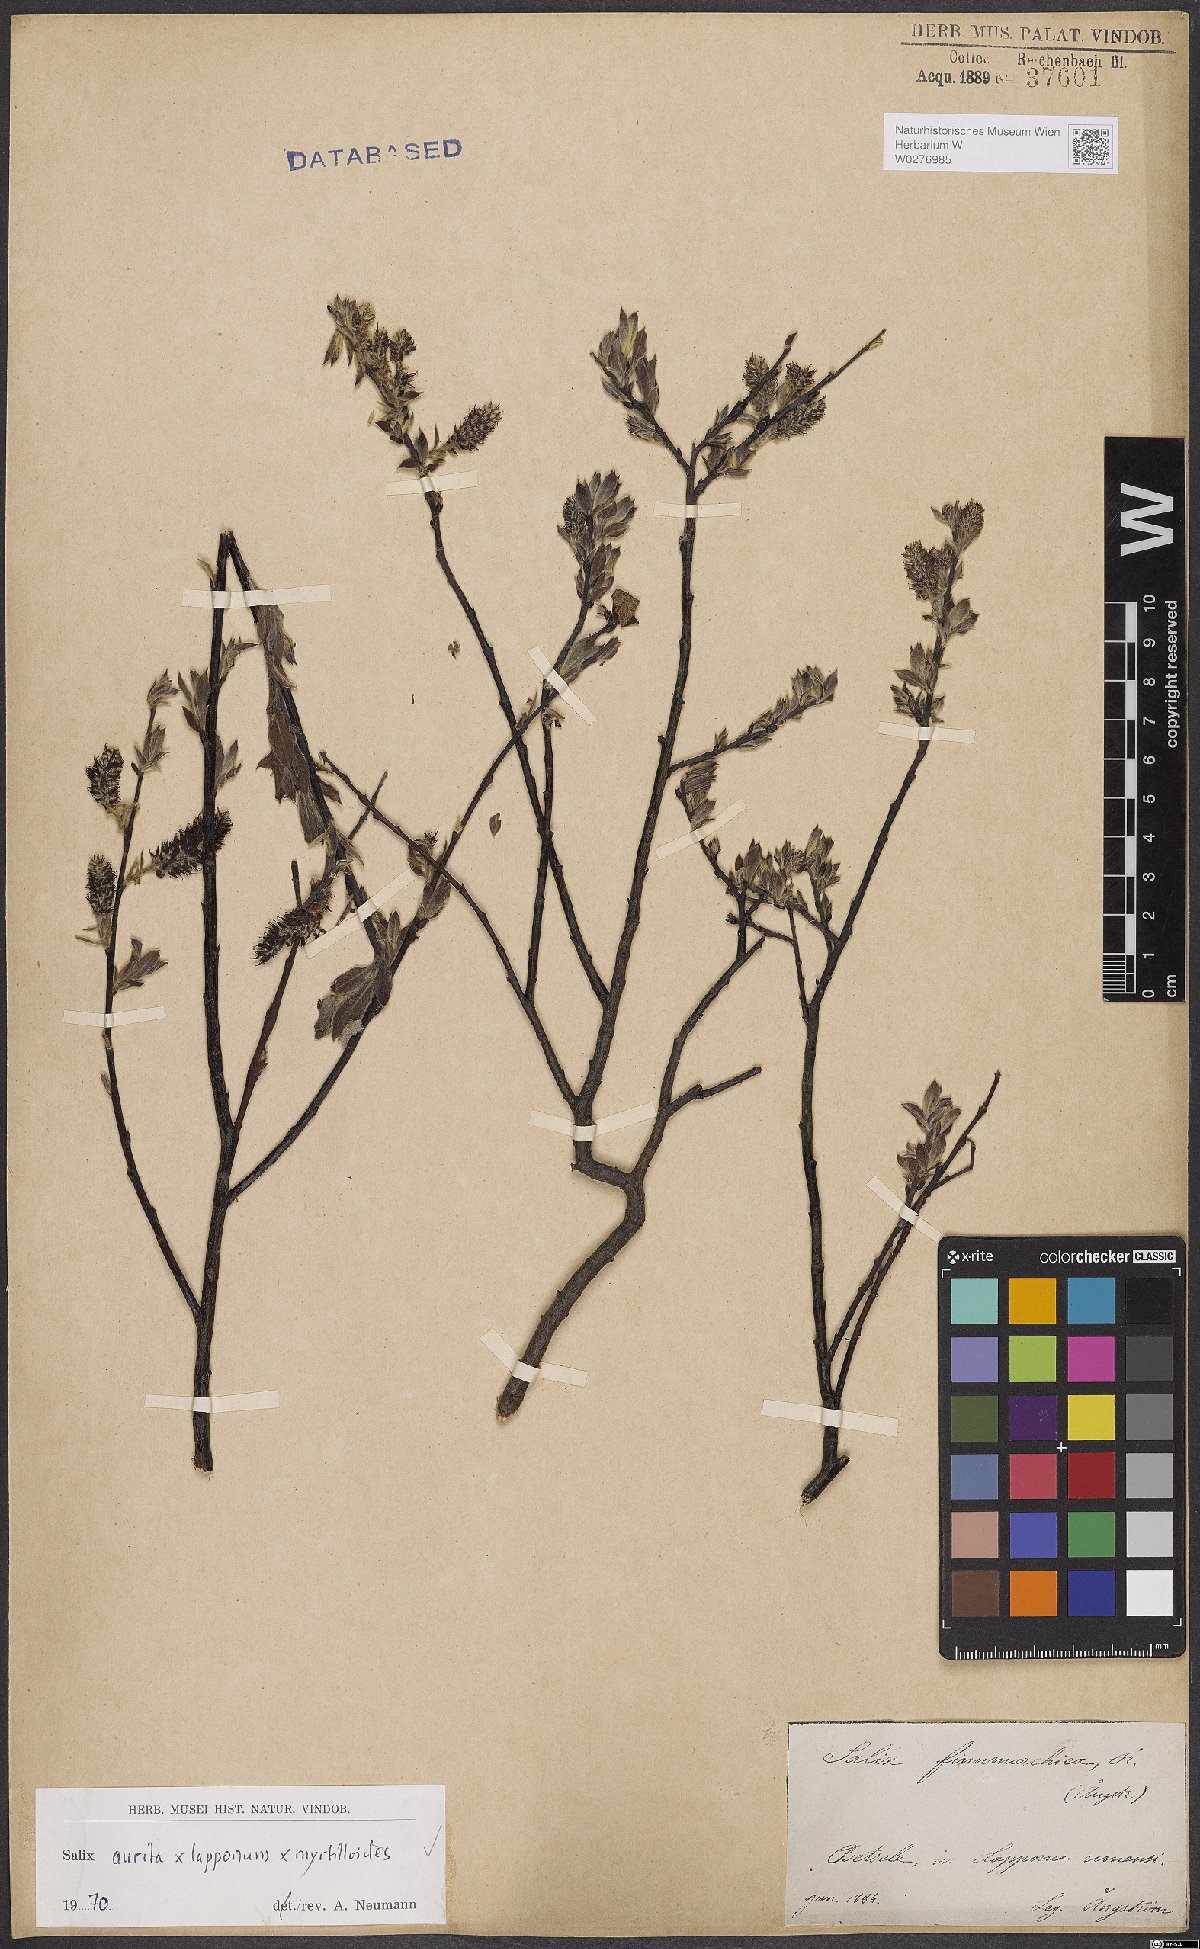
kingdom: Plantae
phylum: Tracheophyta
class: Magnoliopsida
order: Malpighiales
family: Salicaceae
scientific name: Salicaceae
